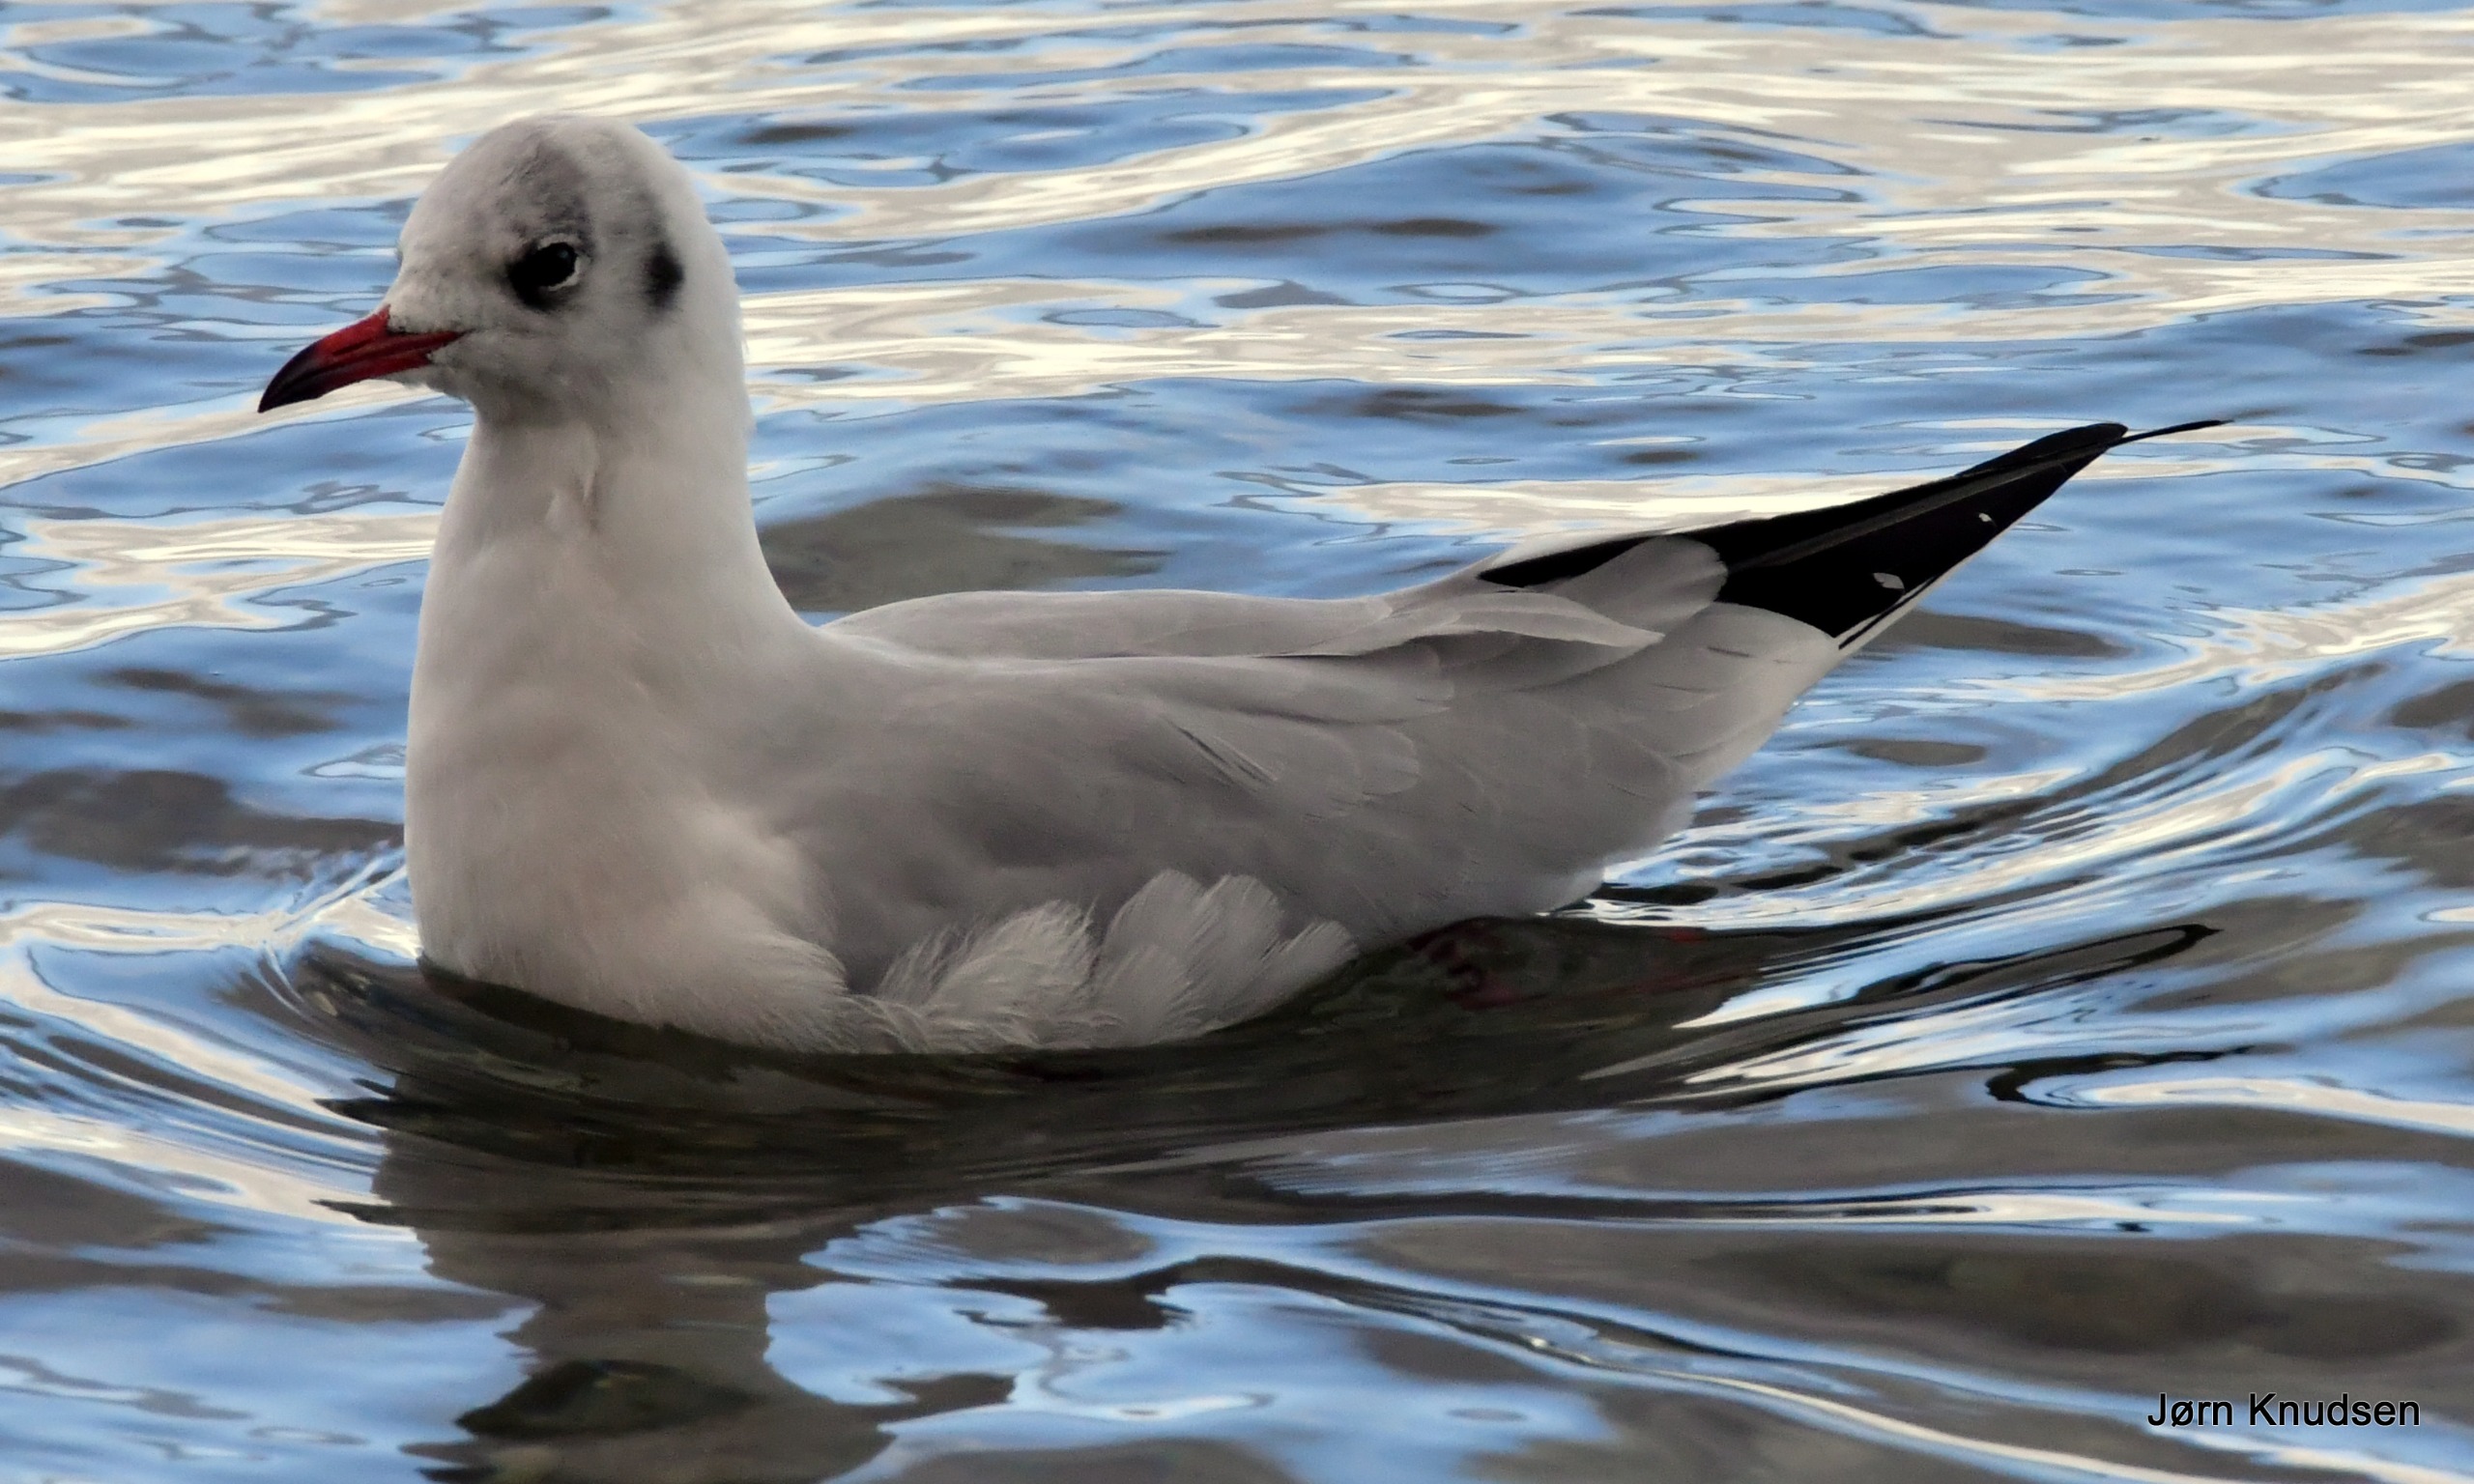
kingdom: Animalia
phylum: Chordata
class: Aves
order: Charadriiformes
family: Laridae
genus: Chroicocephalus
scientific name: Chroicocephalus ridibundus
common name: Hættemåge
